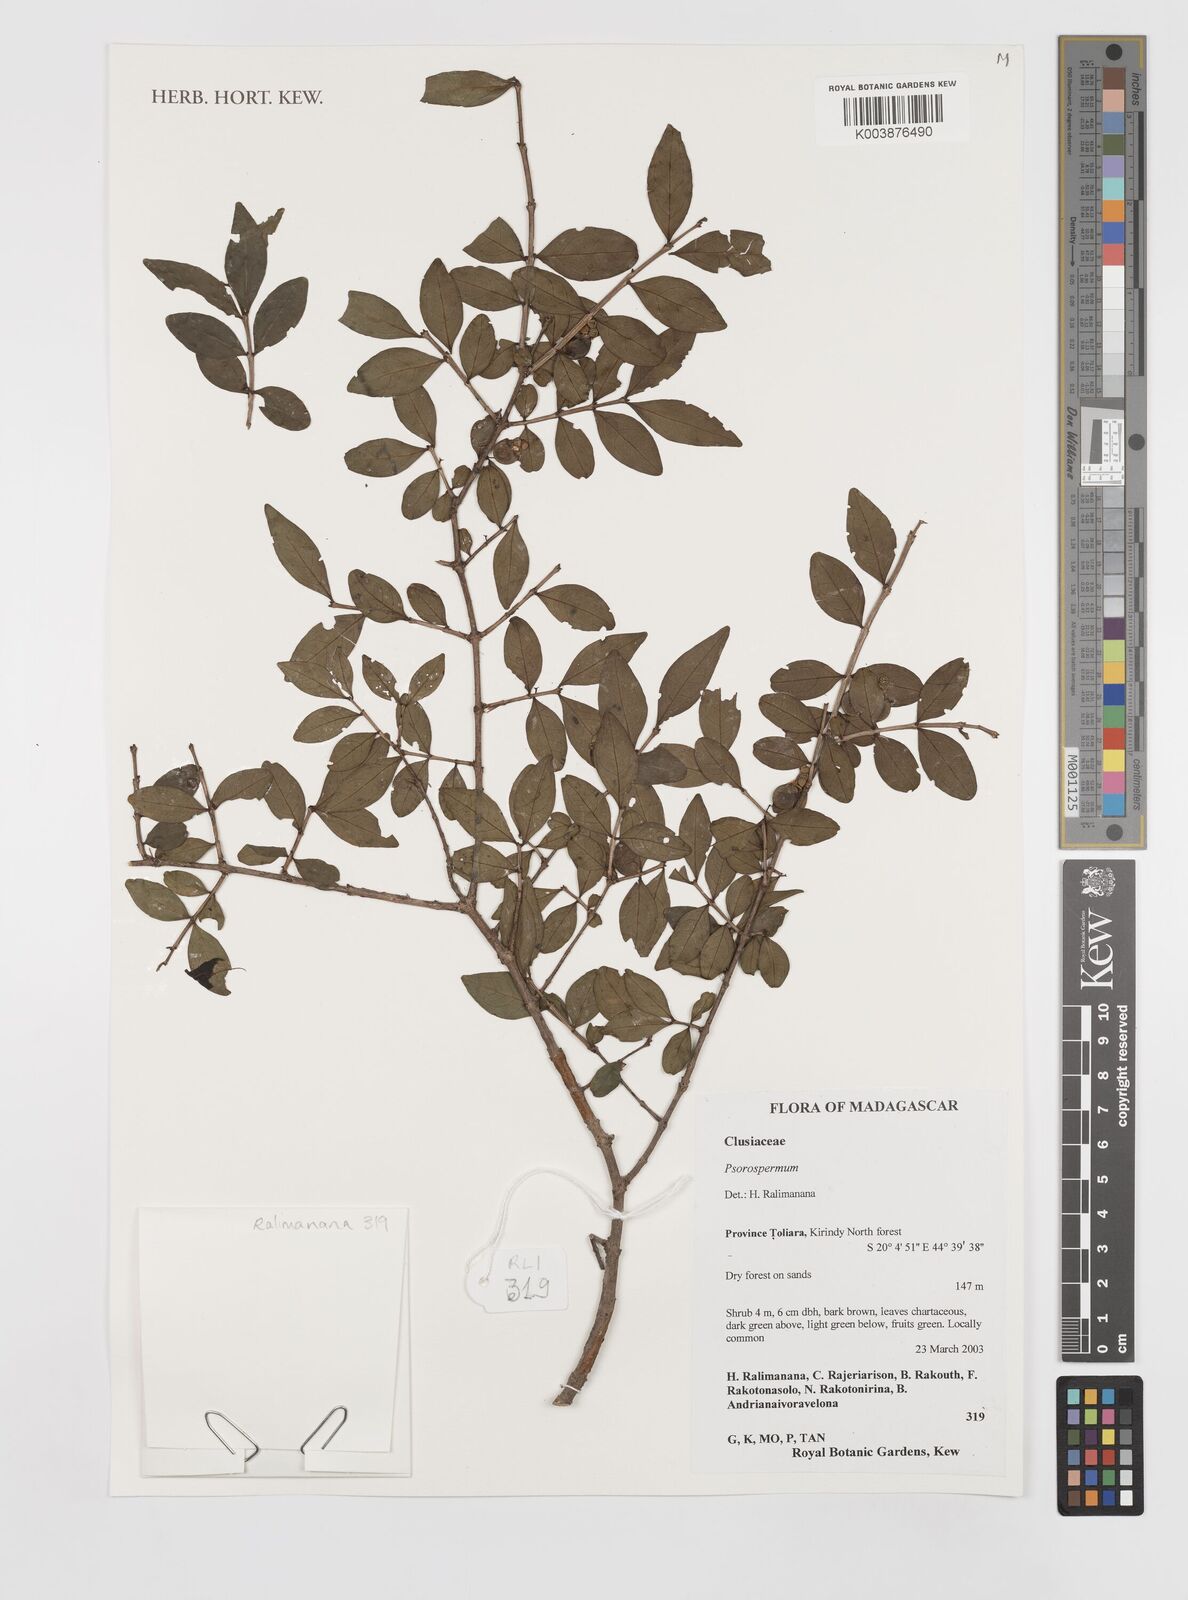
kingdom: Plantae
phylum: Tracheophyta
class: Magnoliopsida
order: Malpighiales
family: Hypericaceae
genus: Psorospermum
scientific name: Psorospermum
